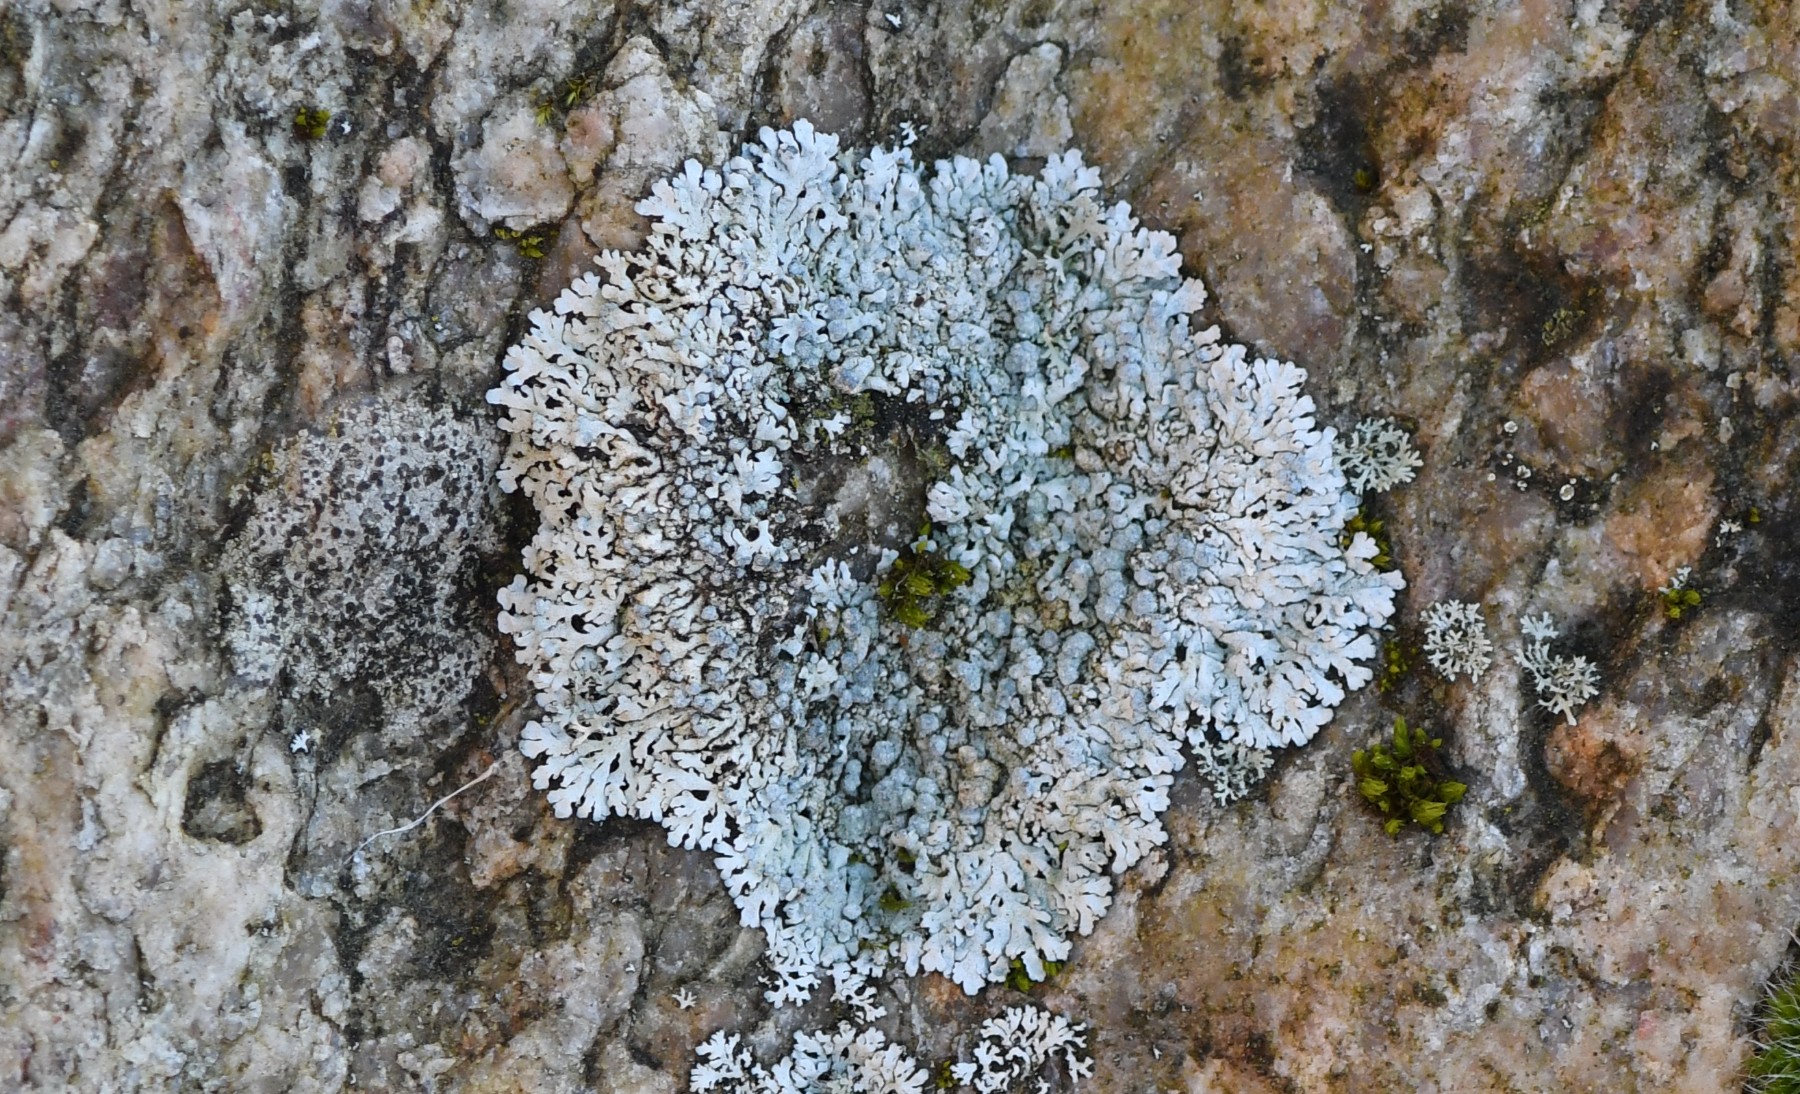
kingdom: Fungi
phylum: Ascomycota
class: Lecanoromycetes
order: Caliciales
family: Physciaceae
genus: Physcia
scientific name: Physcia caesia
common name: blågrå rosetlav
